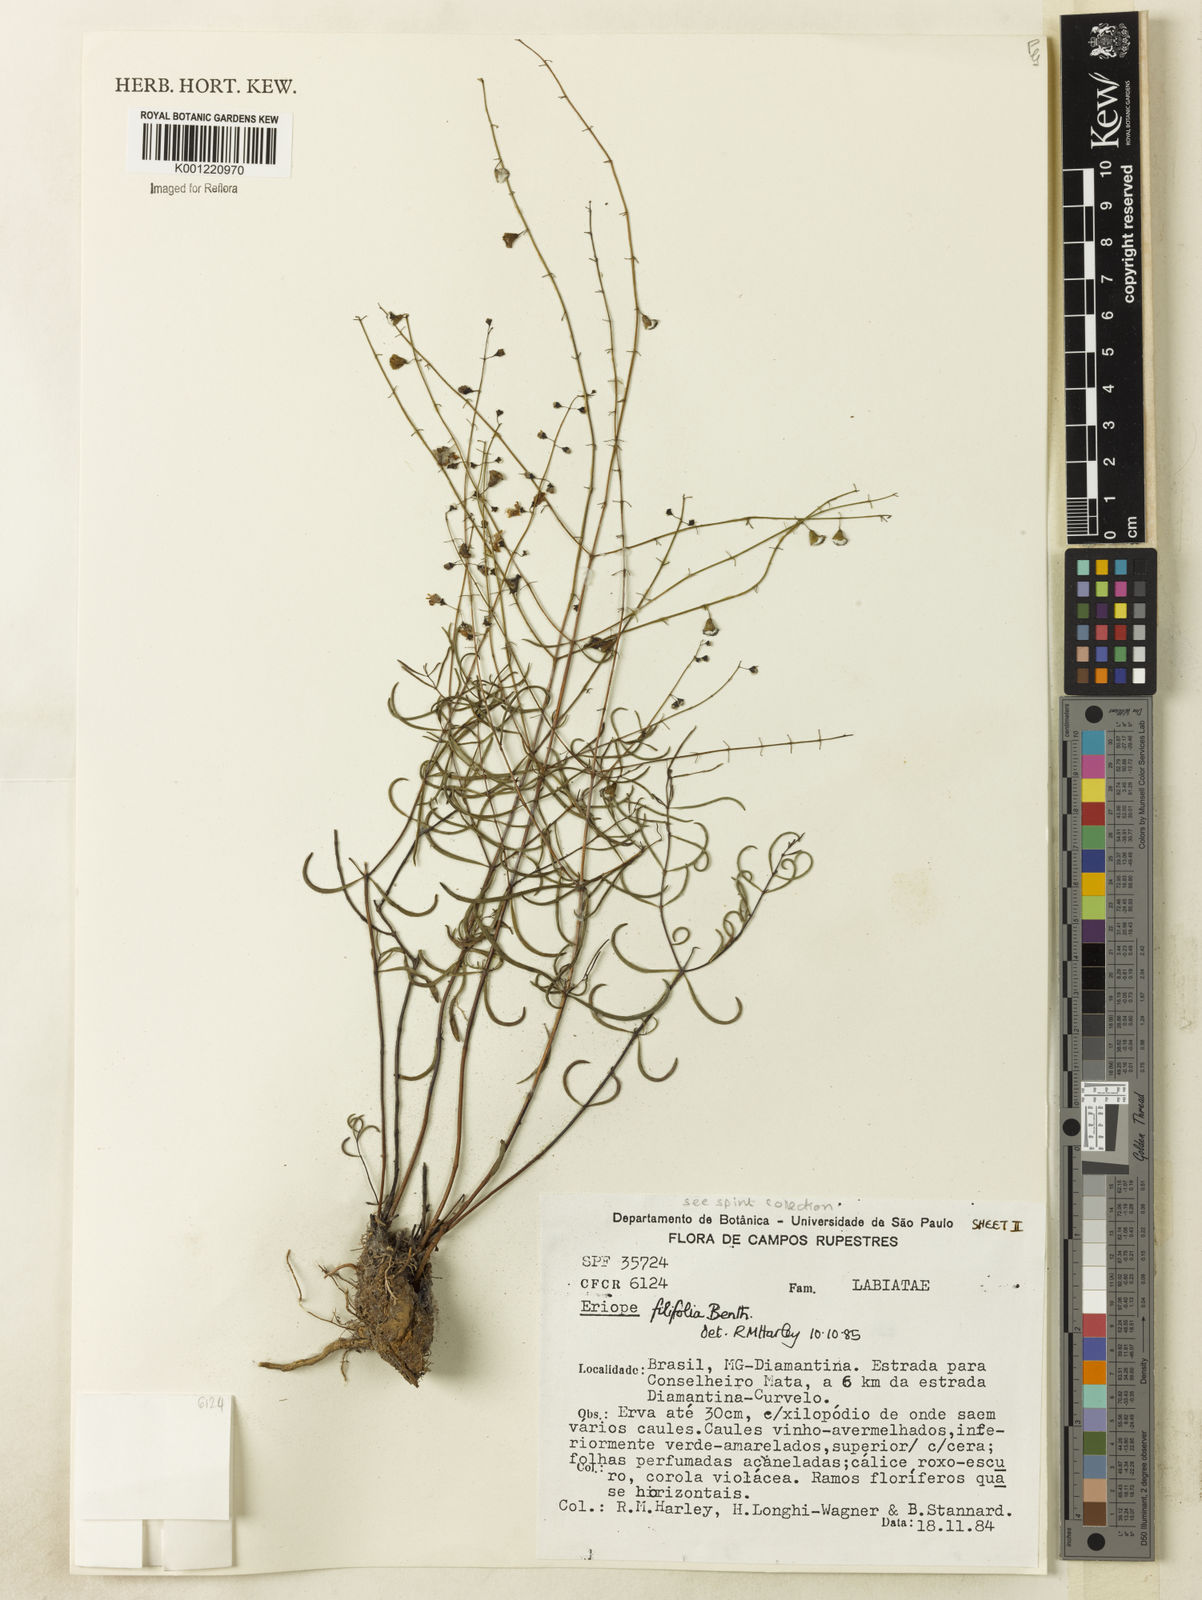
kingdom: Plantae
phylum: Tracheophyta
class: Magnoliopsida
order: Lamiales
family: Lamiaceae
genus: Eriope
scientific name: Eriope filifolia
